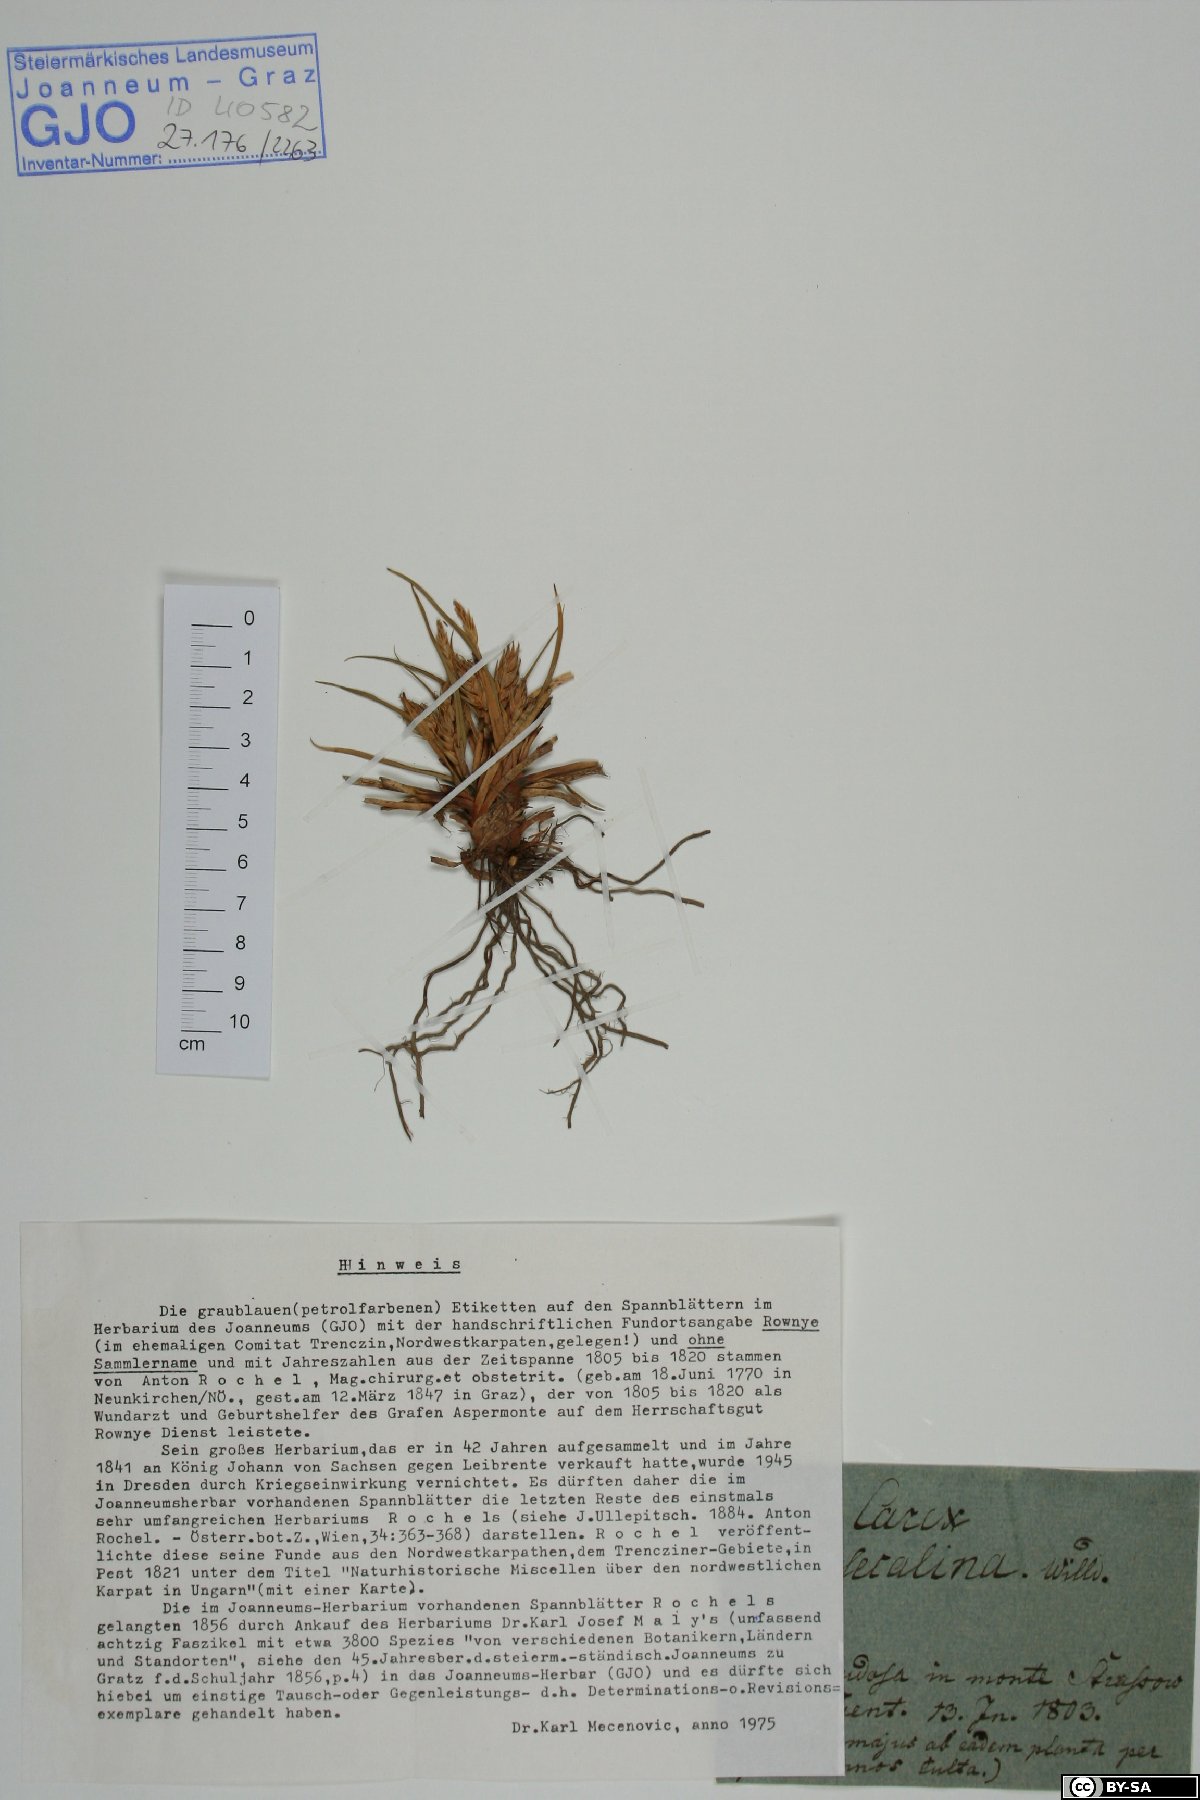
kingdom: Plantae
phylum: Tracheophyta
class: Liliopsida
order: Poales
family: Cyperaceae
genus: Carex
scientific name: Carex secalina
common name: Rye sedge
